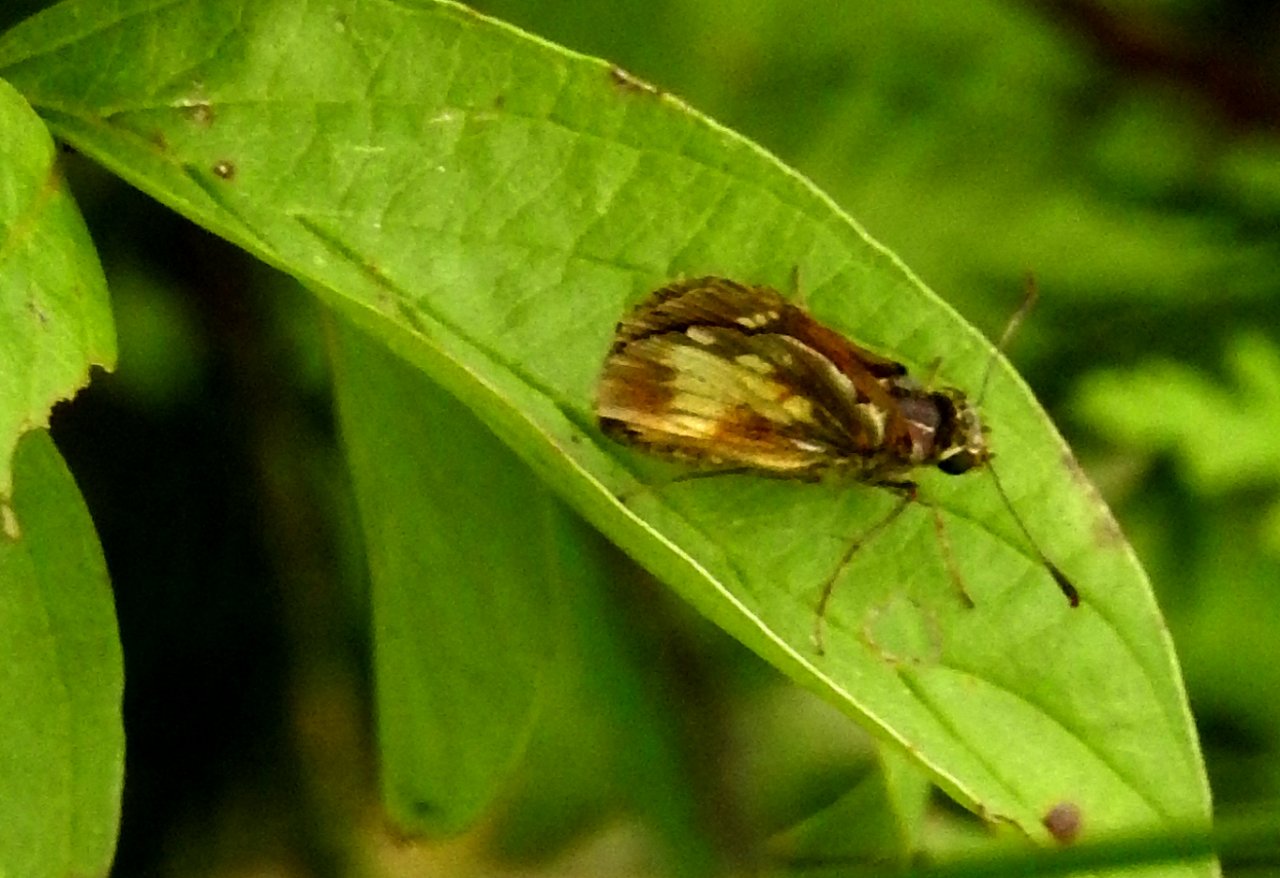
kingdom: Animalia
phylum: Arthropoda
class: Insecta
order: Lepidoptera
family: Hesperiidae
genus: Poanes
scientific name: Poanes massasoit
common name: Mulberry Wing
